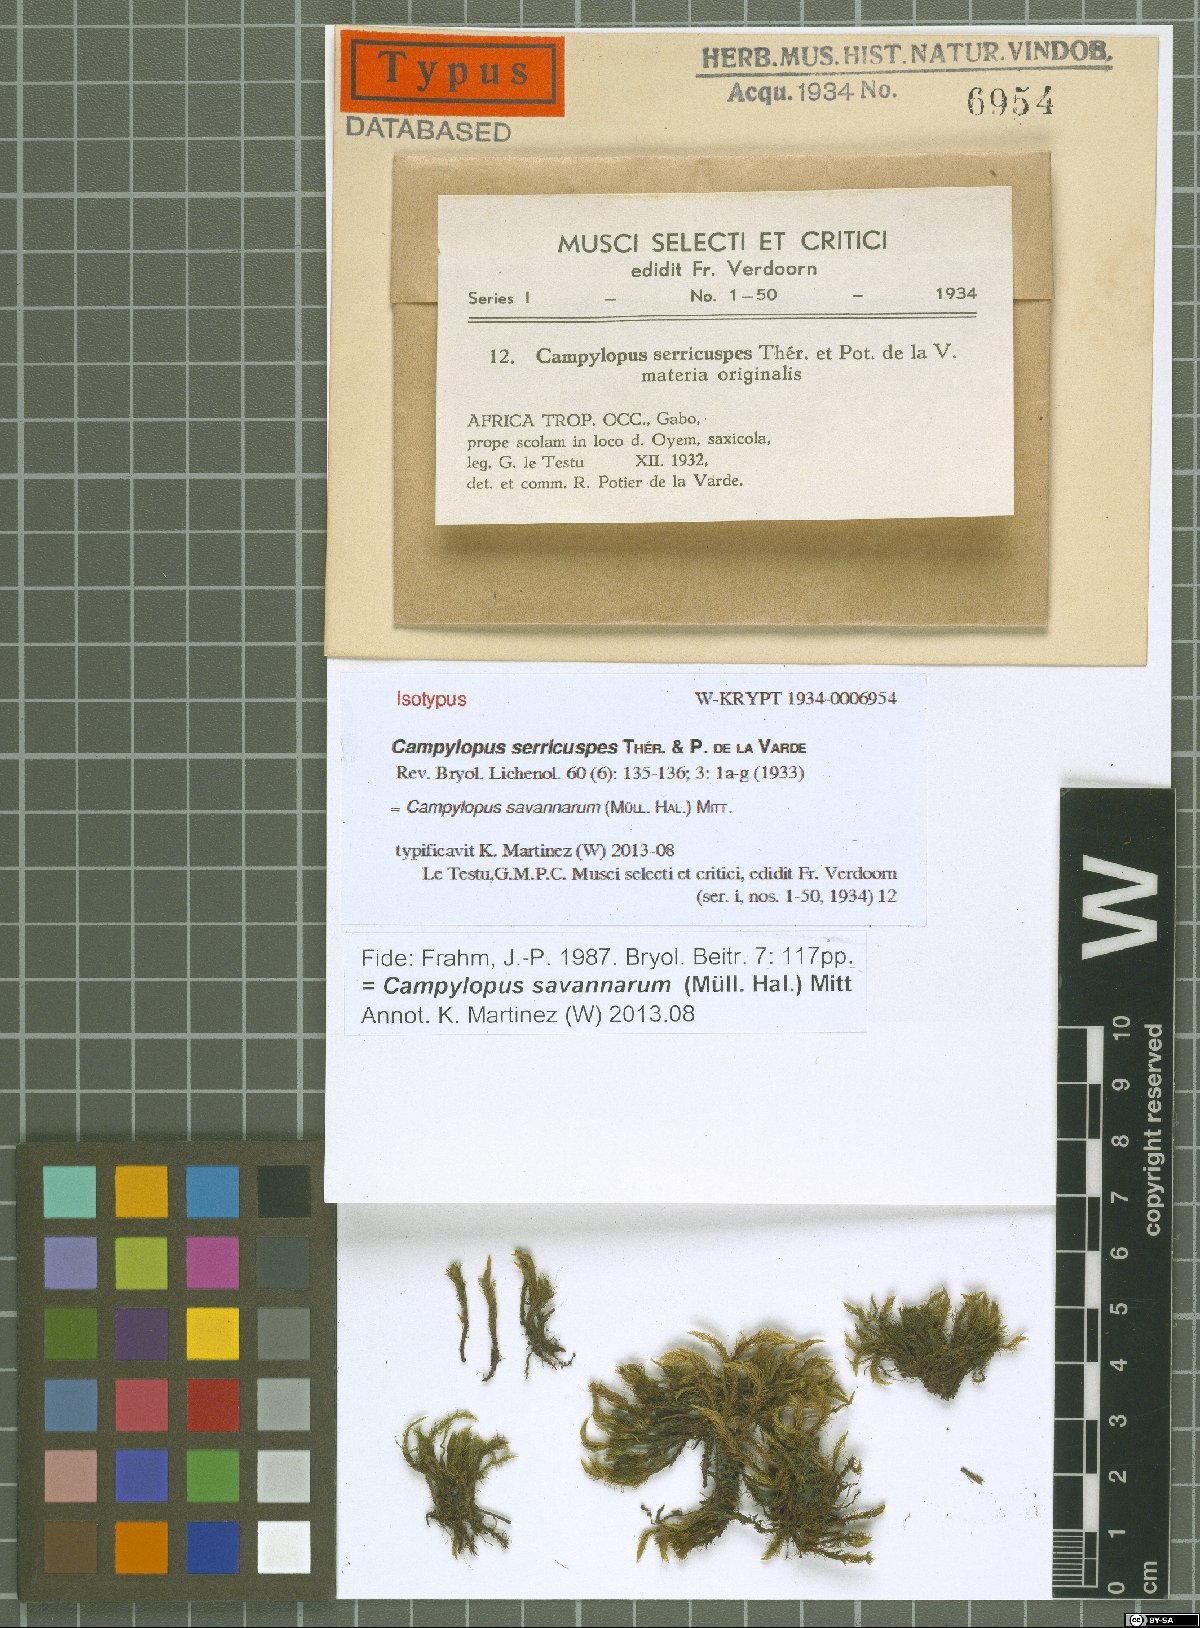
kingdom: Plantae
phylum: Bryophyta
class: Bryopsida
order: Dicranales
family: Leucobryaceae
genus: Campylopus
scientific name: Campylopus savannarum
